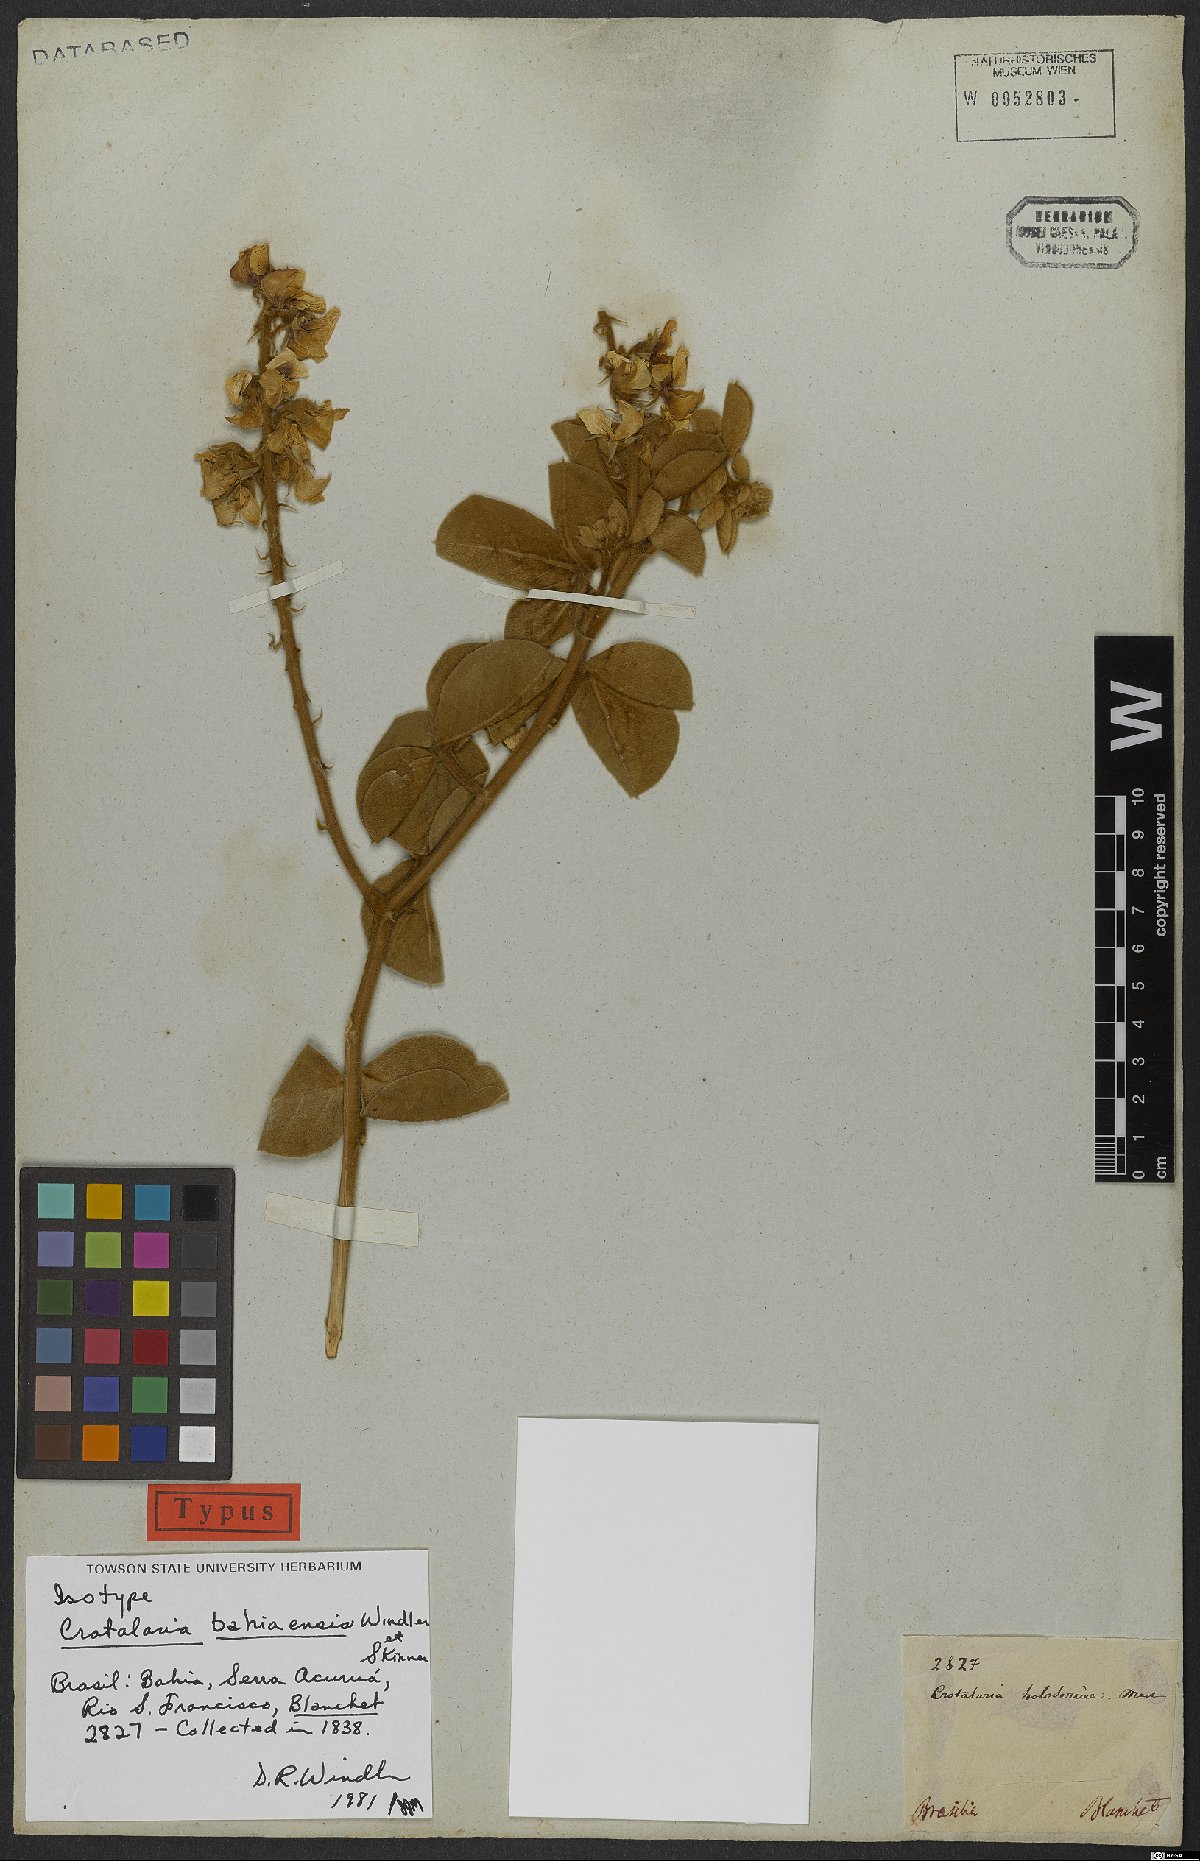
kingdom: Plantae
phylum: Tracheophyta
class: Magnoliopsida
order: Fabales
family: Fabaceae
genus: Crotalaria
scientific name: Crotalaria bahiaensis
